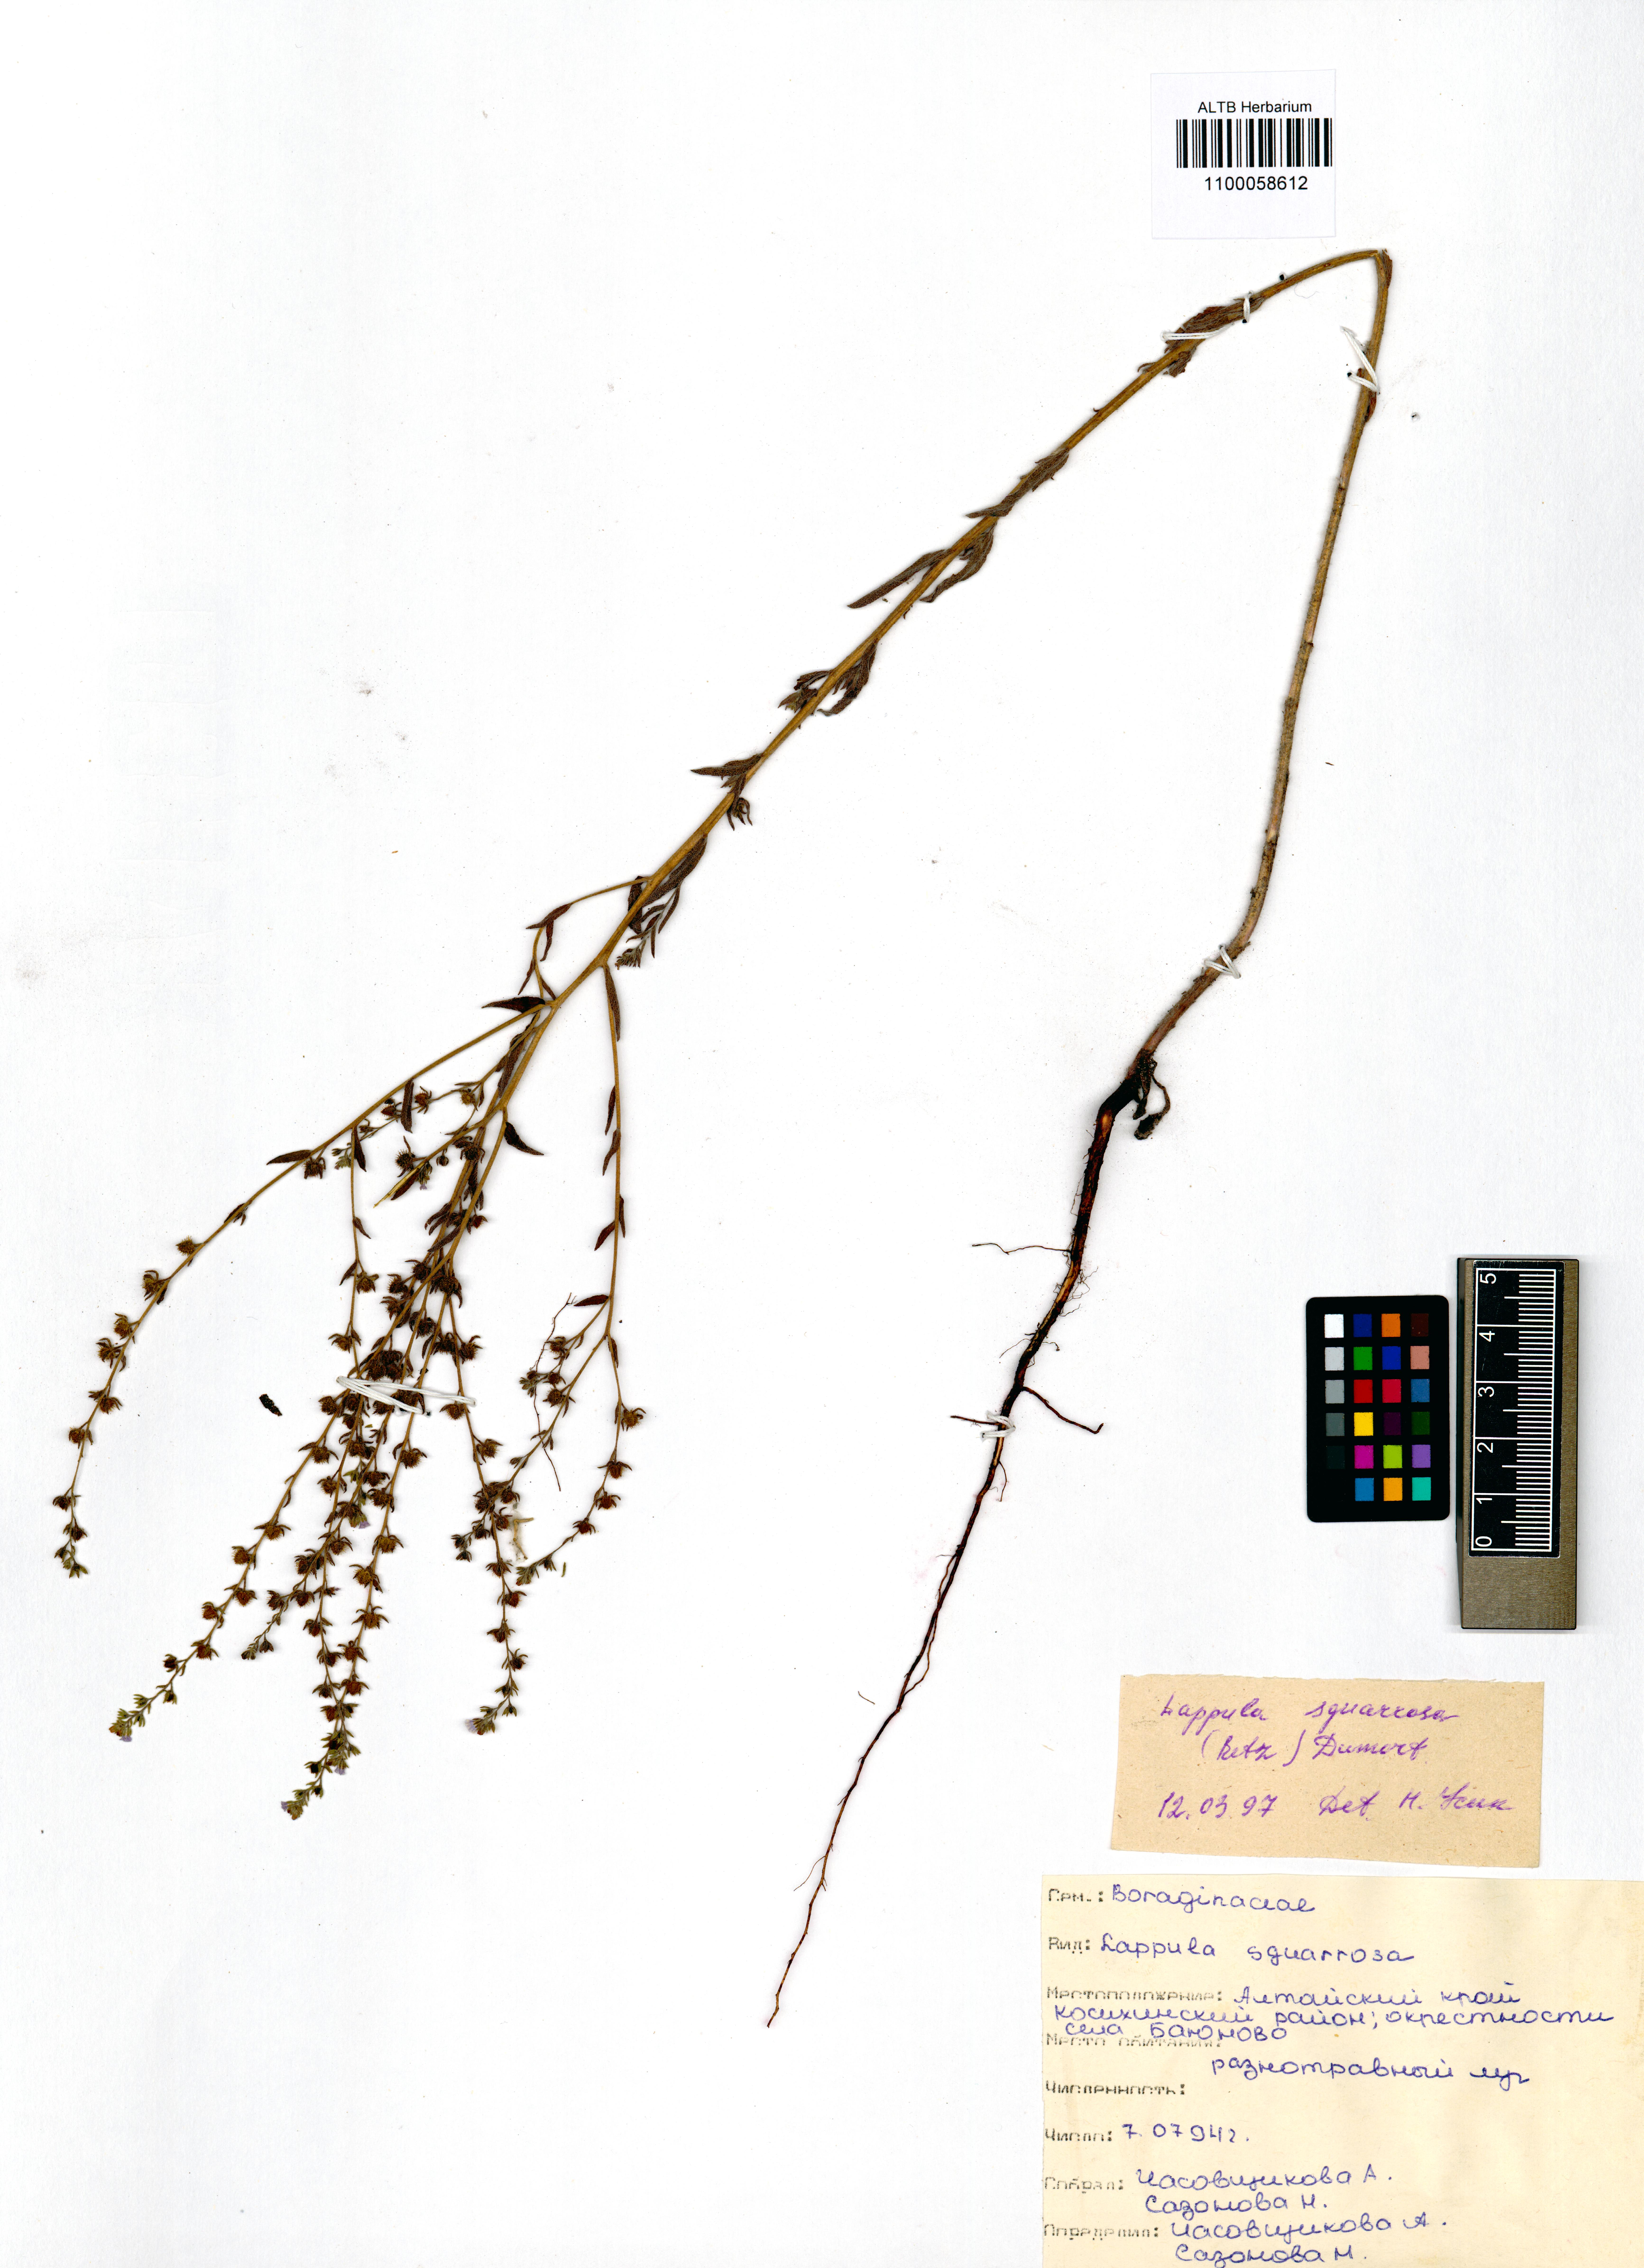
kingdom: Plantae
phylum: Tracheophyta
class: Magnoliopsida
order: Boraginales
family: Boraginaceae
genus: Lappula
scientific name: Lappula squarrosa
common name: European stickseed
